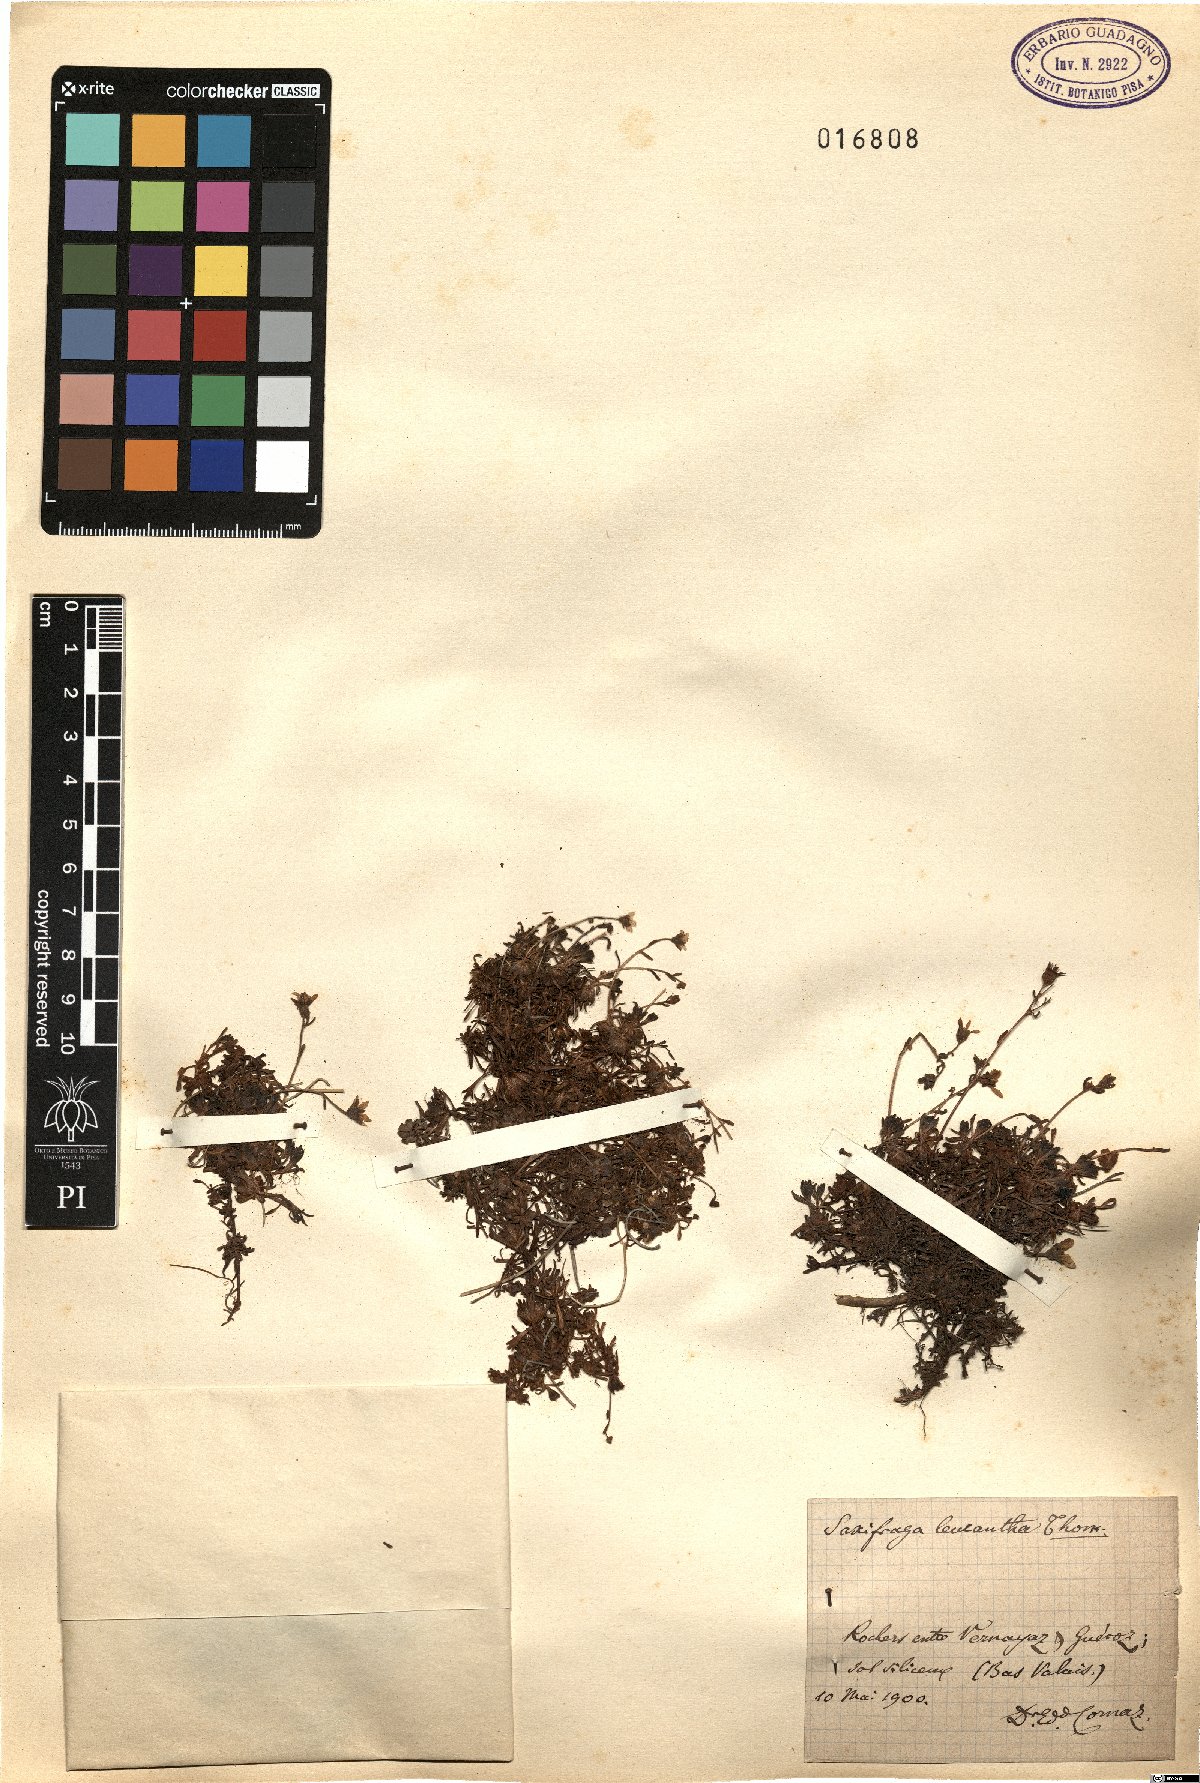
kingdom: Plantae
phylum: Tracheophyta
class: Magnoliopsida
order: Saxifragales
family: Saxifragaceae
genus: Saxifraga
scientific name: Saxifraga exarata
